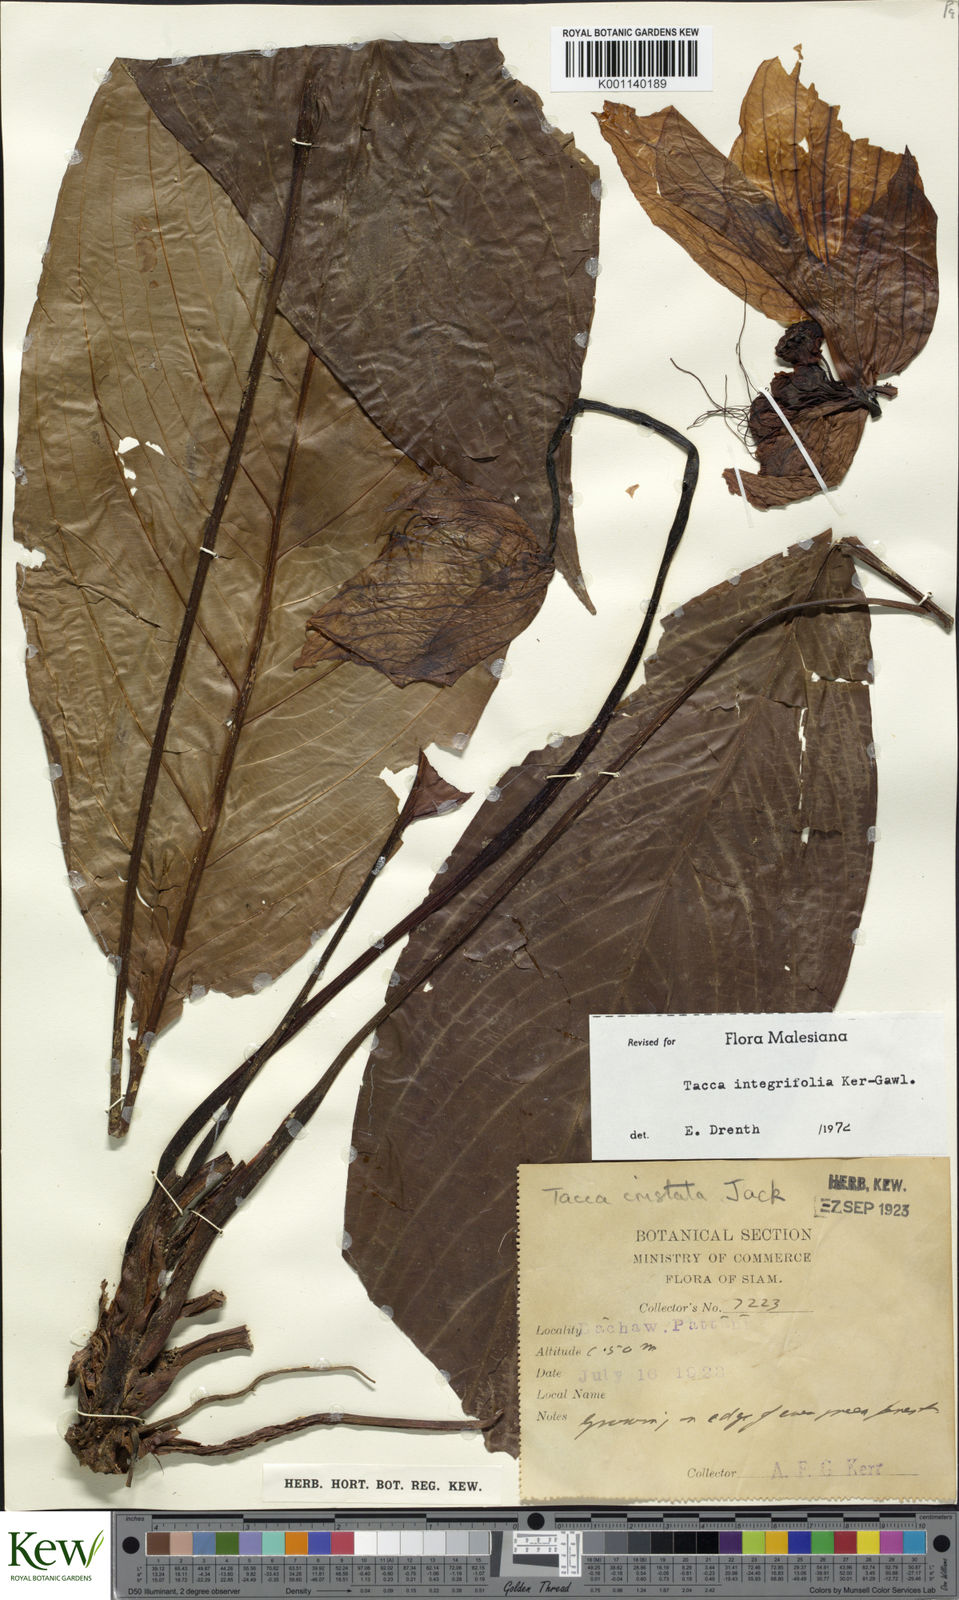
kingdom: Plantae
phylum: Tracheophyta
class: Liliopsida
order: Dioscoreales
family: Dioscoreaceae
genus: Tacca
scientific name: Tacca integrifolia
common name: Batplant
